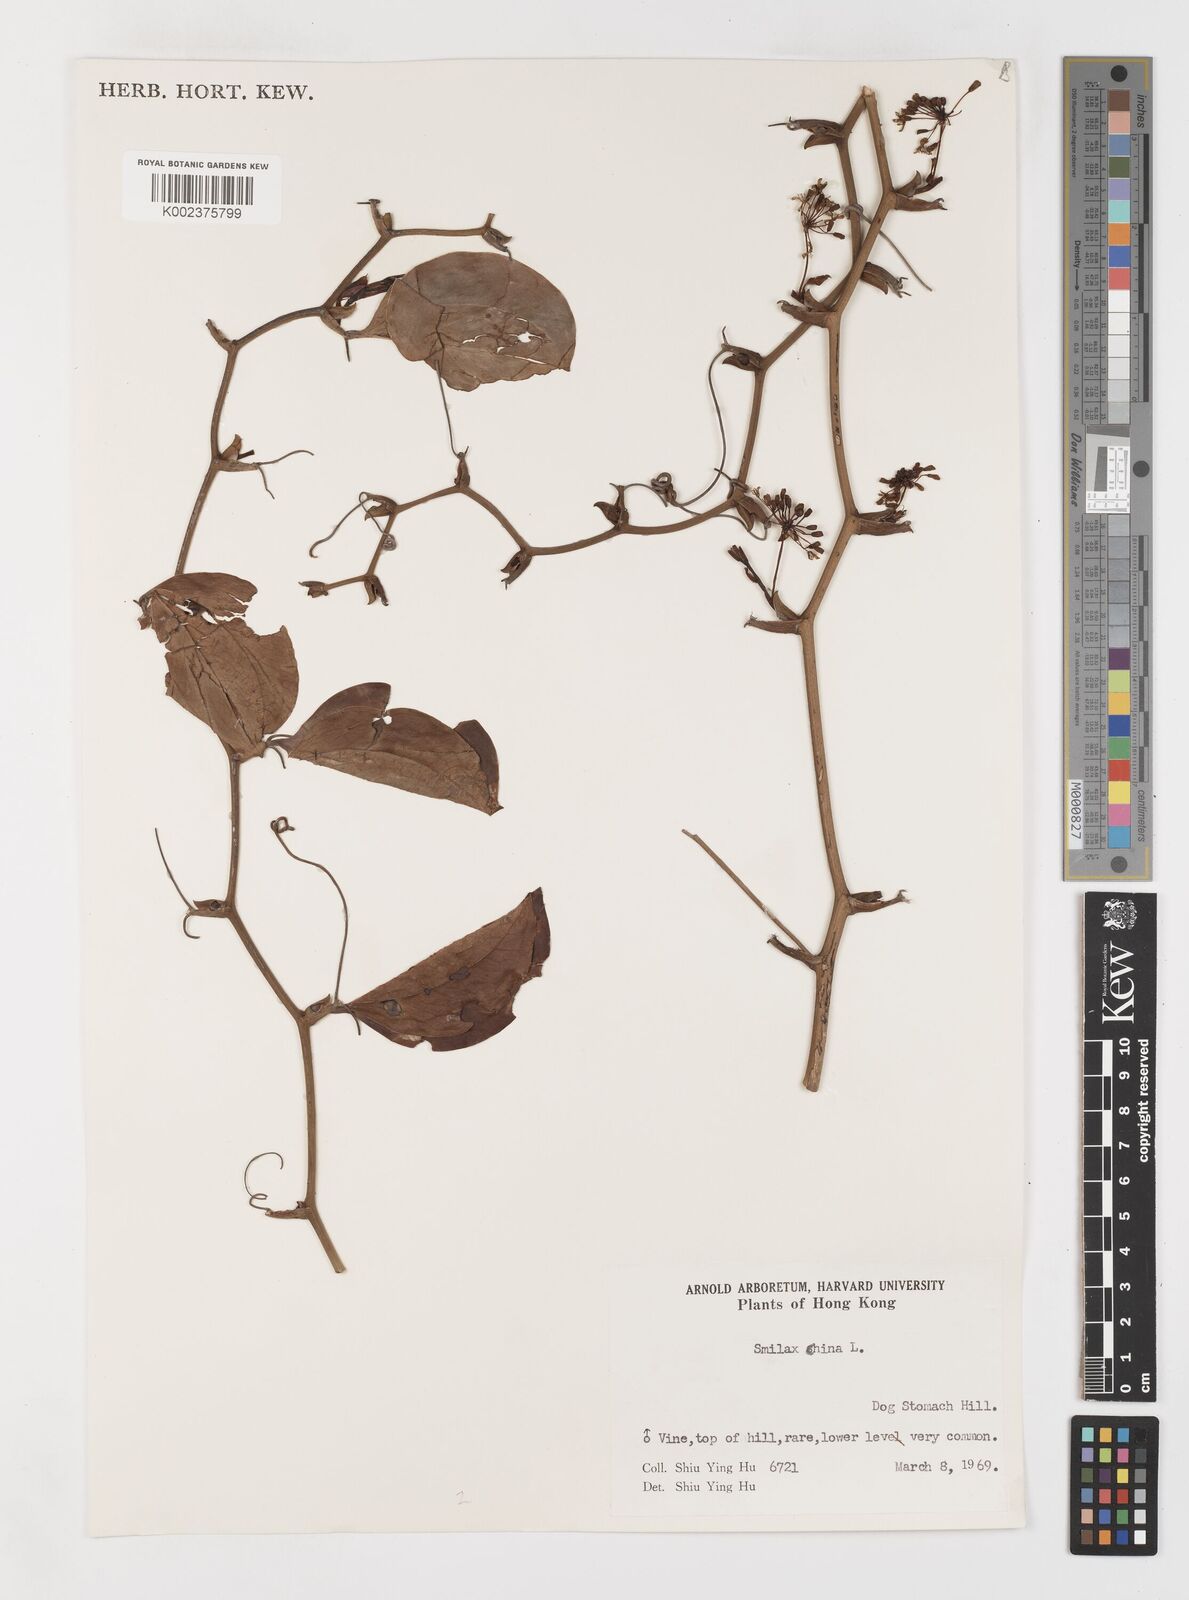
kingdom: Plantae
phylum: Tracheophyta
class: Liliopsida
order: Liliales
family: Smilacaceae
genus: Smilax
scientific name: Smilax china
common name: Chinaroot
